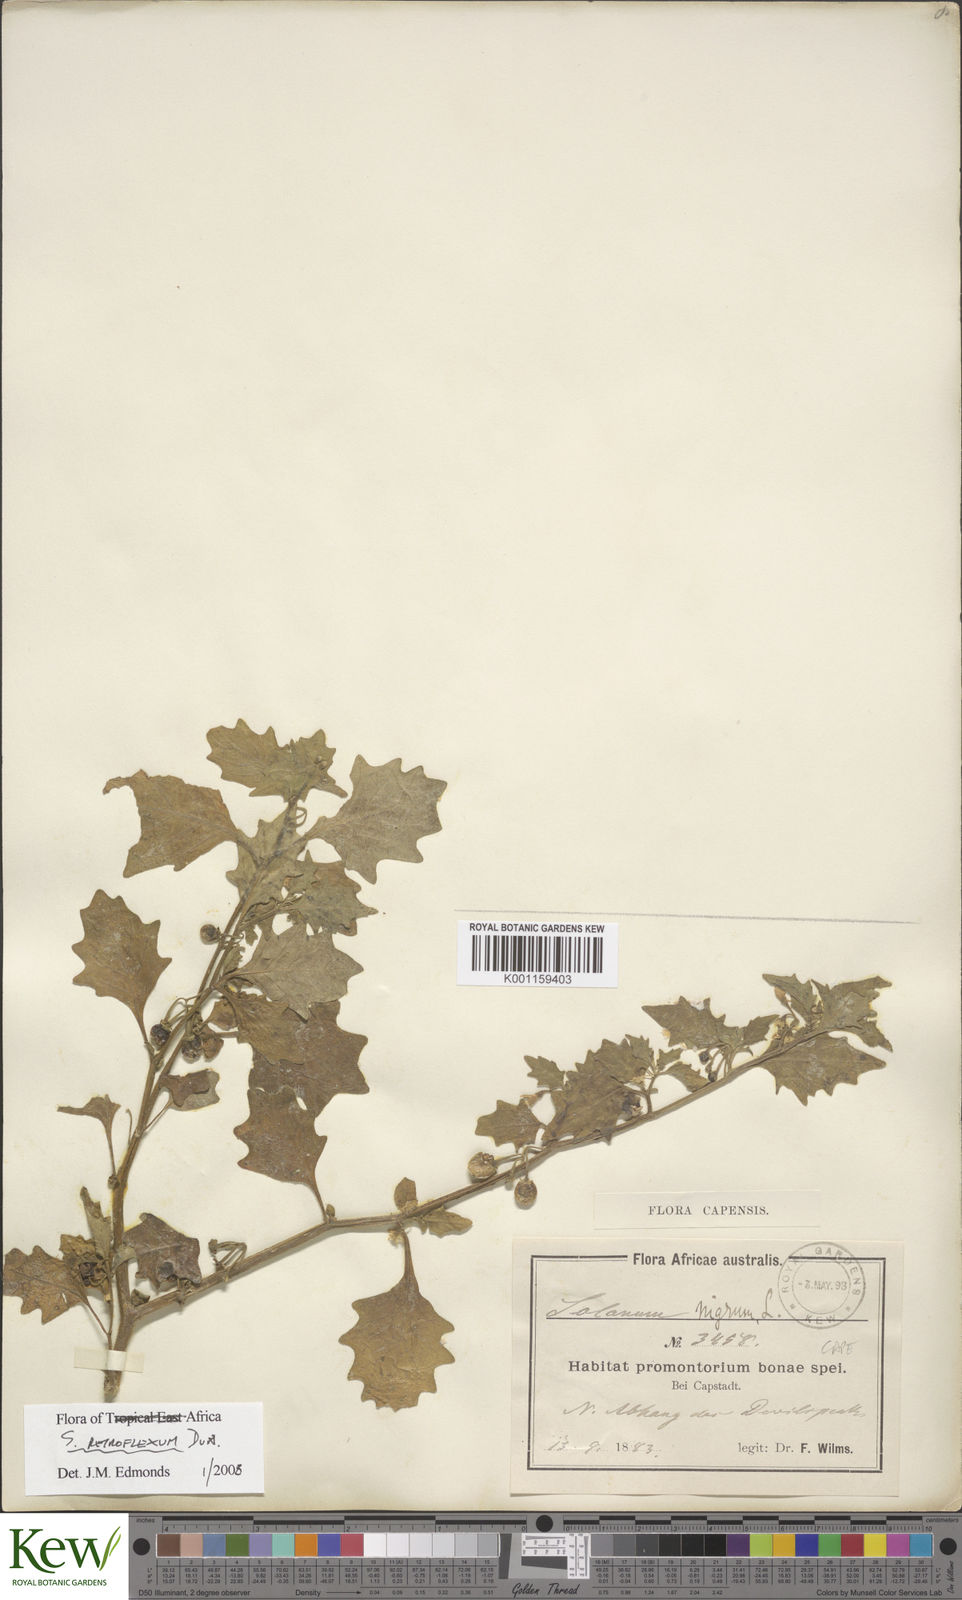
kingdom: Plantae
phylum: Tracheophyta
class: Magnoliopsida
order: Solanales
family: Solanaceae
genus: Solanum
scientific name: Solanum retroflexum
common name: Wonderberry
